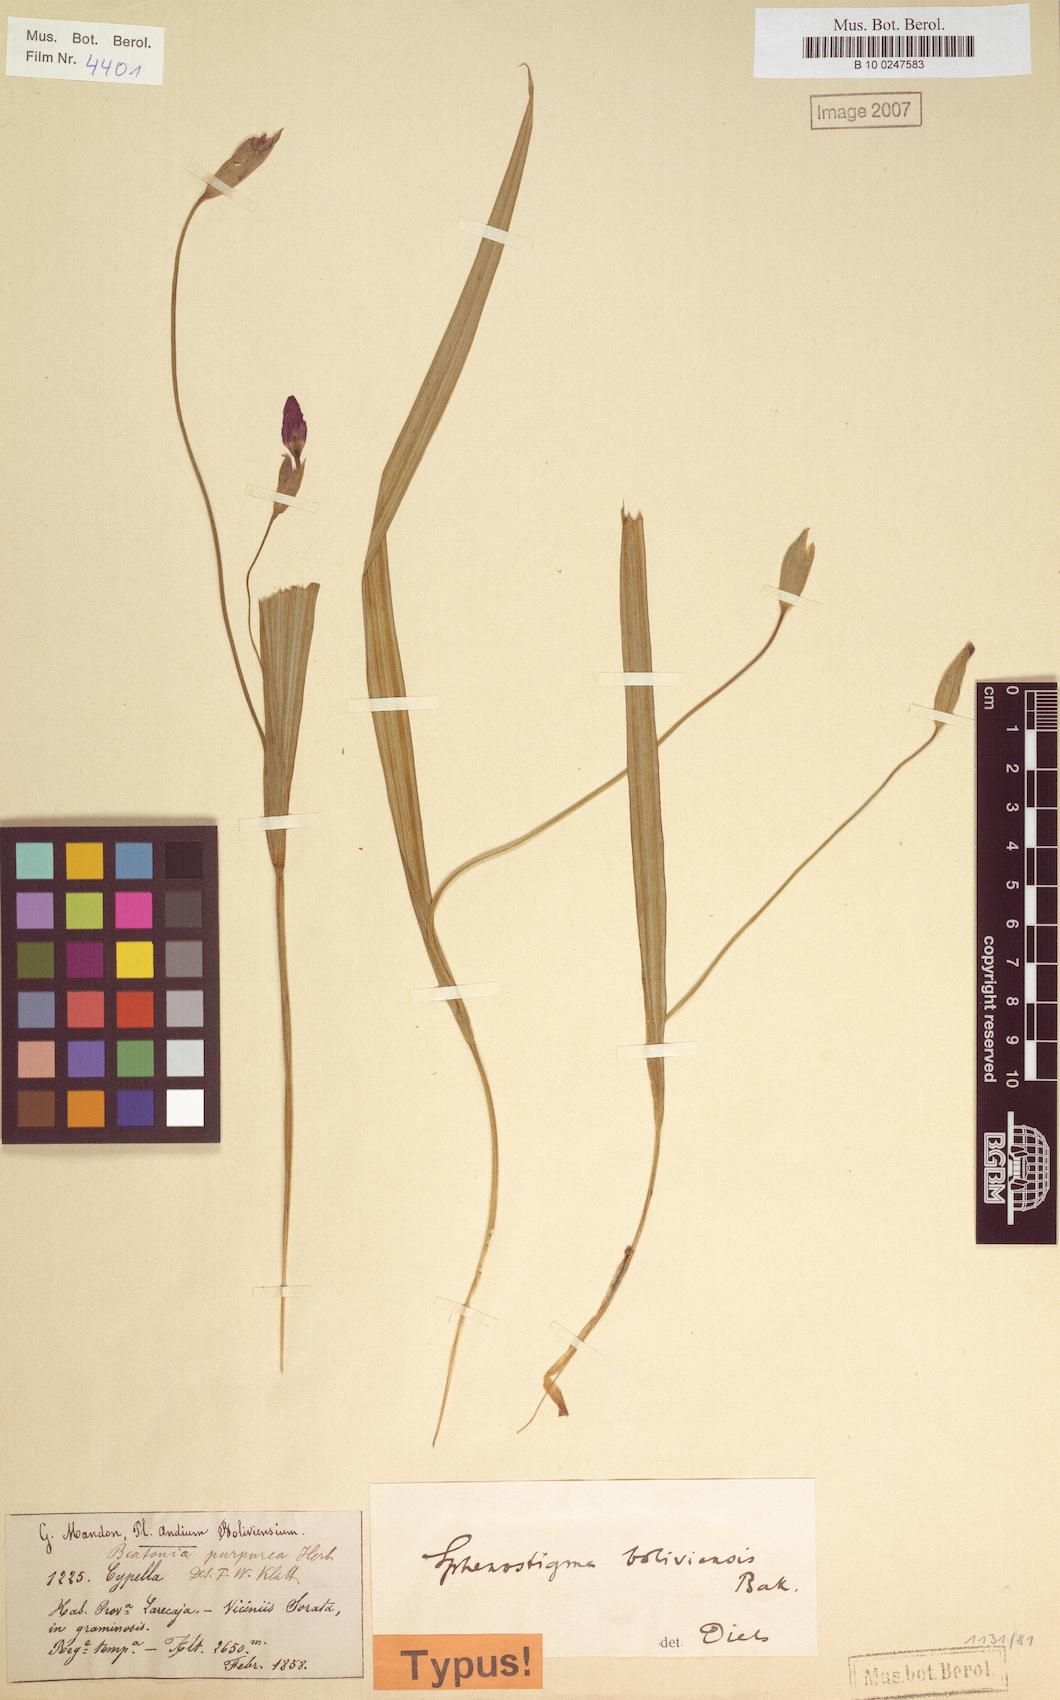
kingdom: Plantae
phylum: Tracheophyta
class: Liliopsida
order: Asparagales
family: Iridaceae
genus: Ennealophus
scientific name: Ennealophus boliviensis
